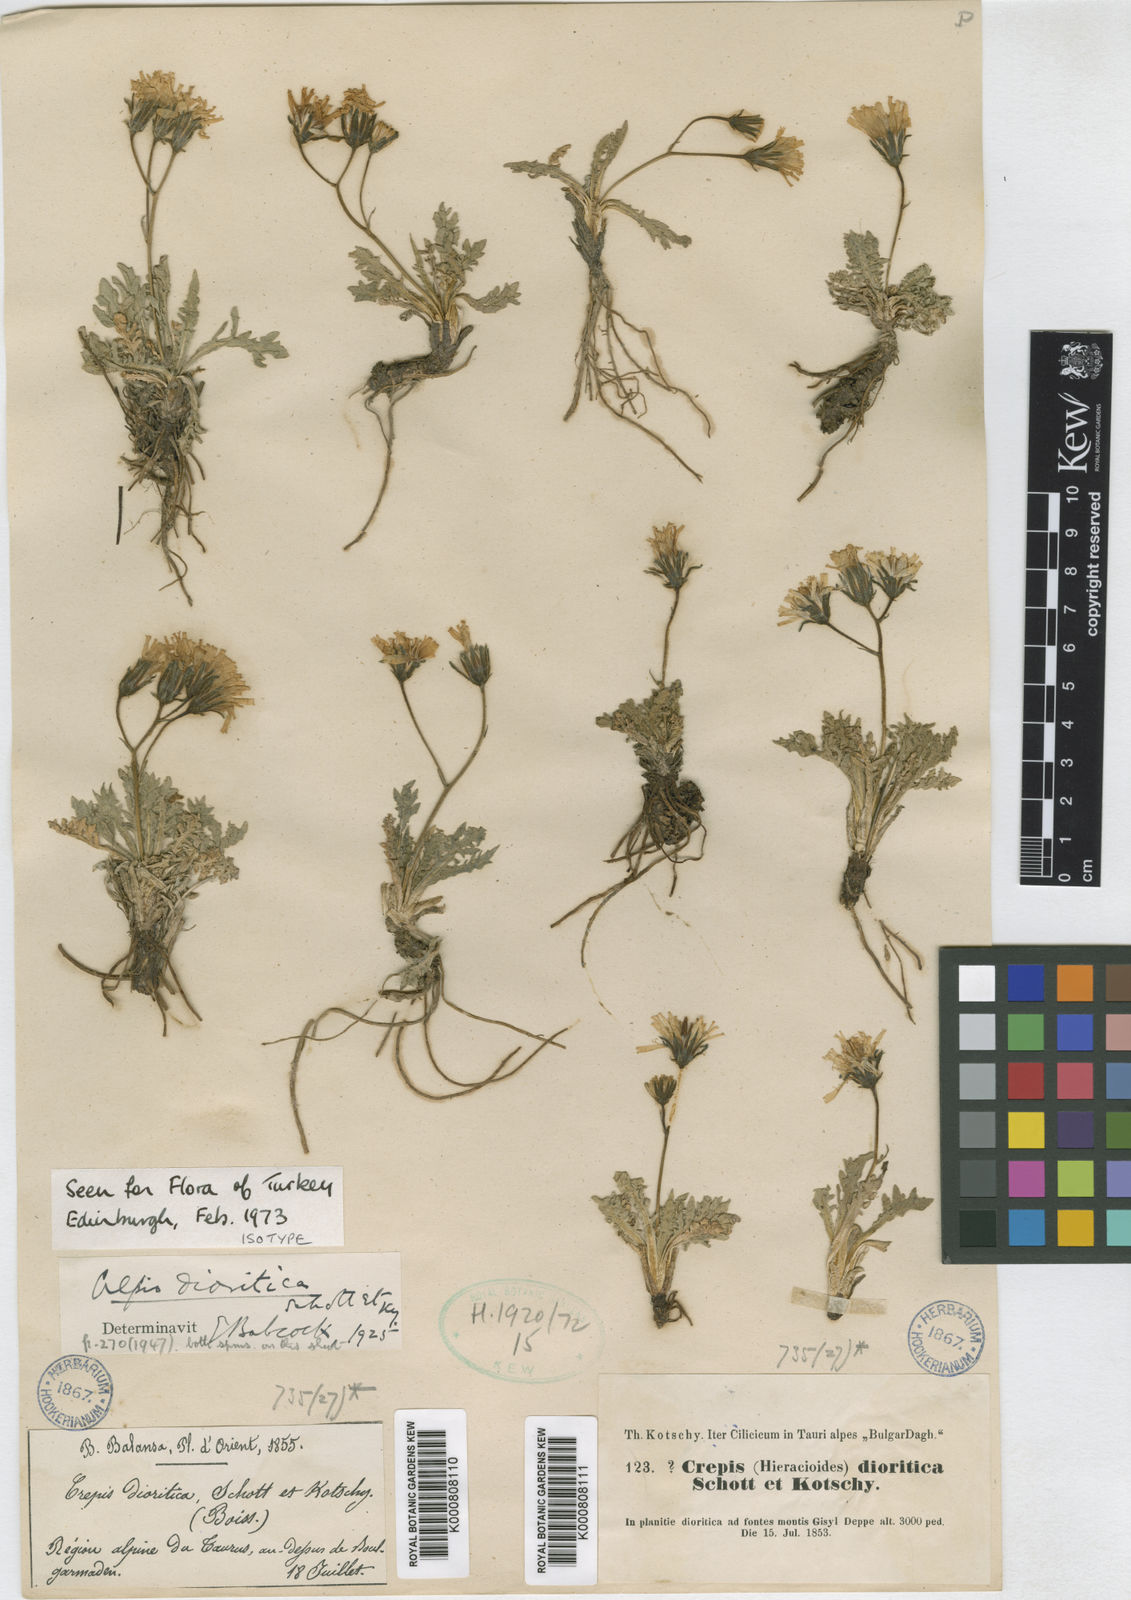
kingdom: Plantae
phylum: Tracheophyta
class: Magnoliopsida
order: Asterales
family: Asteraceae
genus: Crepis
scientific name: Crepis dioritica
